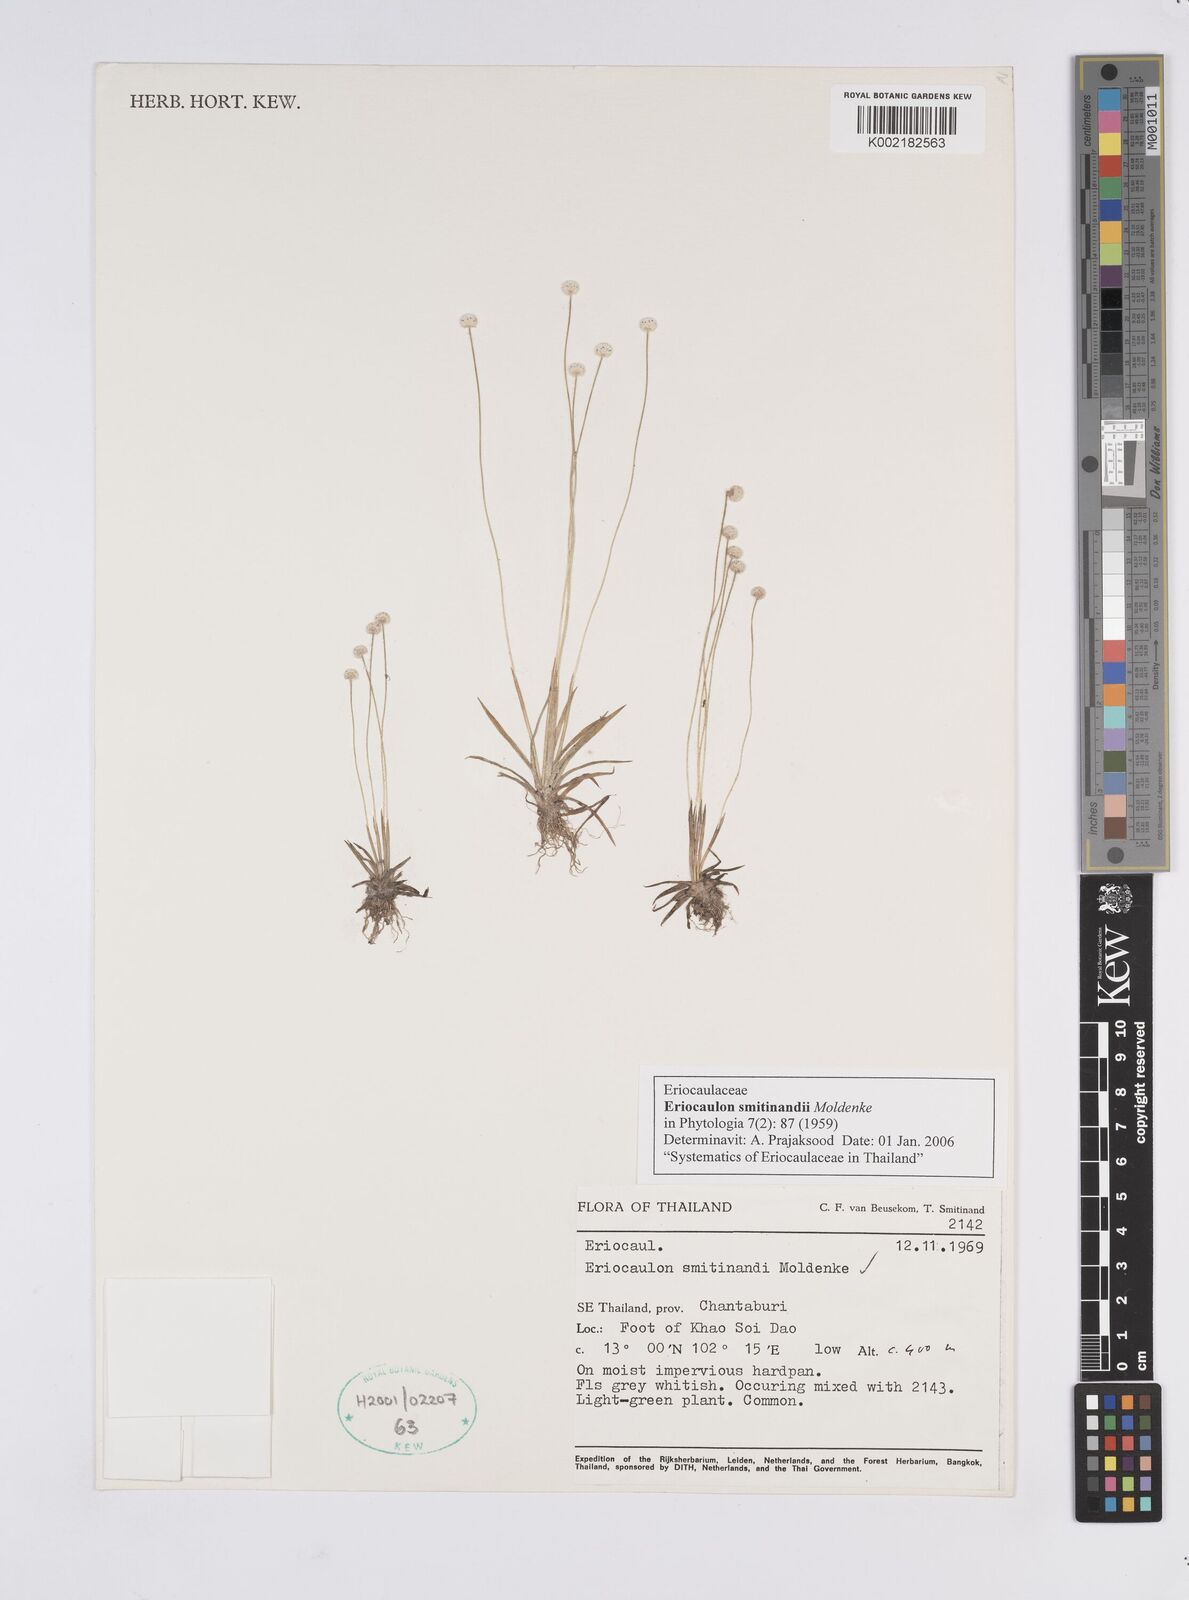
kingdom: Plantae
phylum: Tracheophyta
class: Liliopsida
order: Poales
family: Eriocaulaceae
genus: Eriocaulon
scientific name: Eriocaulon smitinandii
